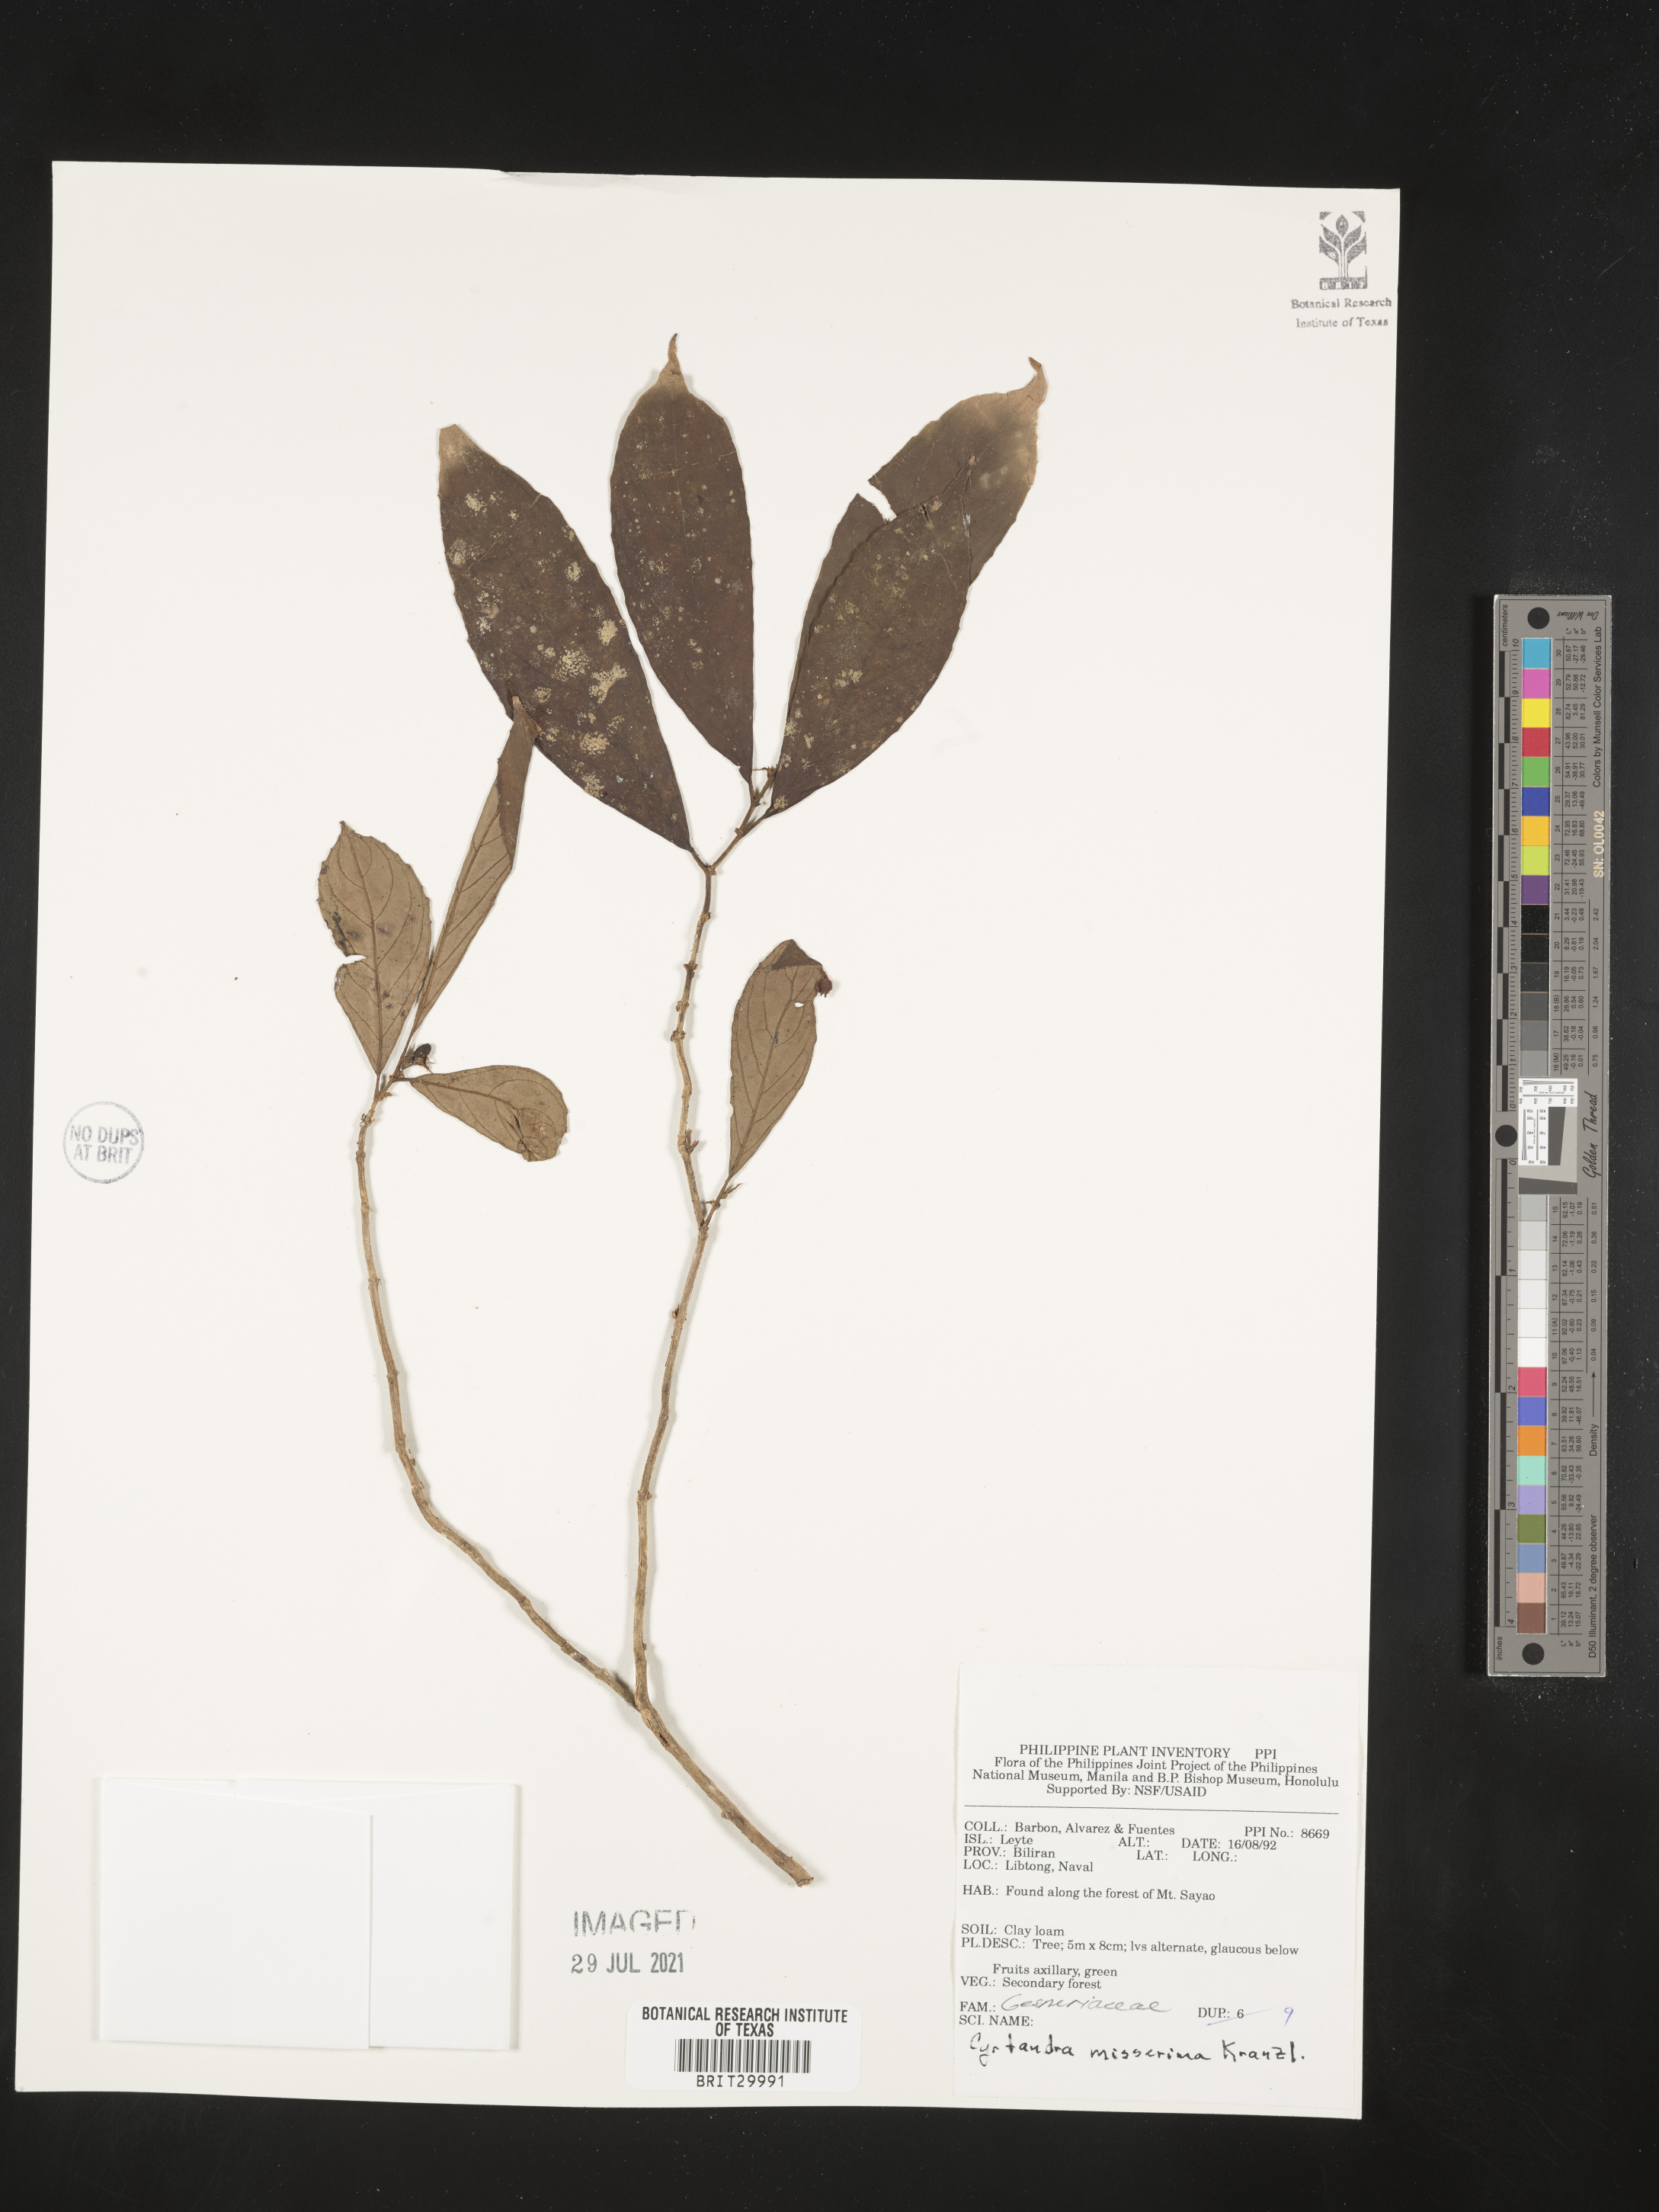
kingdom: Plantae
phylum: Tracheophyta
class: Magnoliopsida
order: Lamiales
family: Gesneriaceae
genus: Cyrtandra
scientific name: Cyrtandra callicarpifolia
